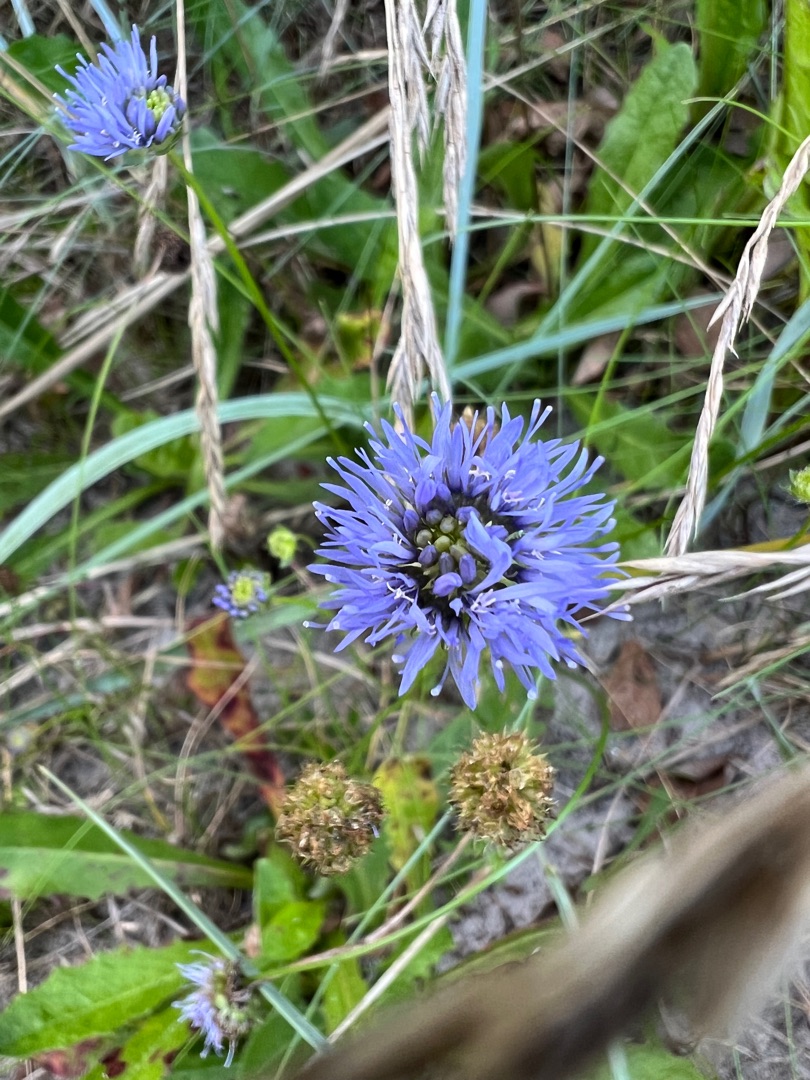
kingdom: Plantae
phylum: Tracheophyta
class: Magnoliopsida
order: Asterales
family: Campanulaceae
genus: Jasione
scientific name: Jasione montana
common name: Blåmunke
